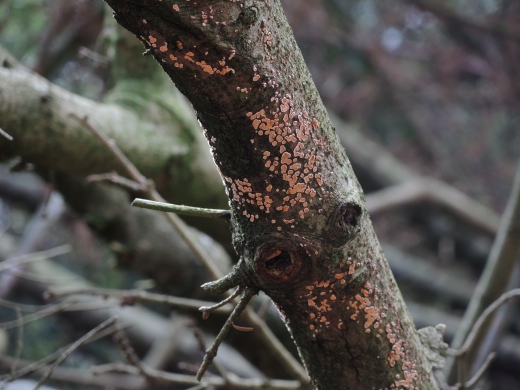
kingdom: Fungi
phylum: Basidiomycota
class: Agaricomycetes
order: Russulales
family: Stereaceae
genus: Aleurodiscus
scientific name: Aleurodiscus amorphus
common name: orange skiveskorpe
